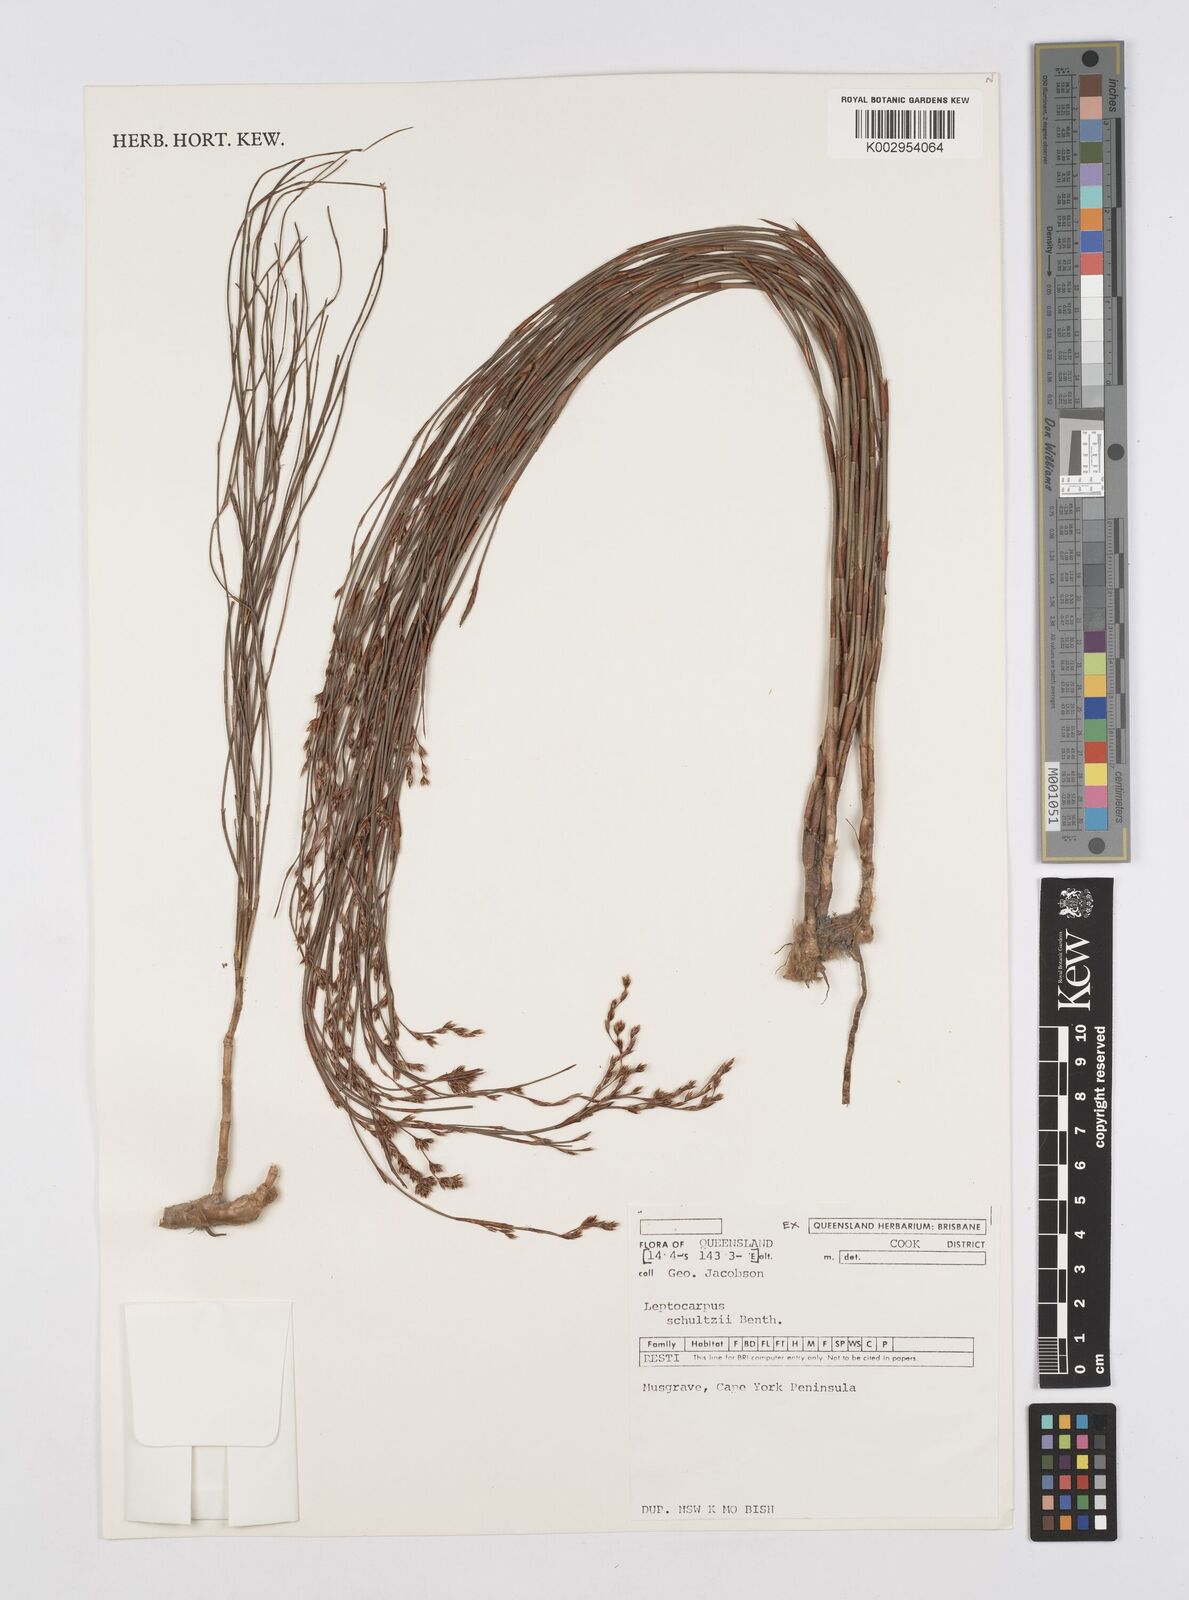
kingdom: Plantae
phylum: Tracheophyta
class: Liliopsida
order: Poales
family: Restionaceae
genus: Dapsilanthus
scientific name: Dapsilanthus spathaceus
